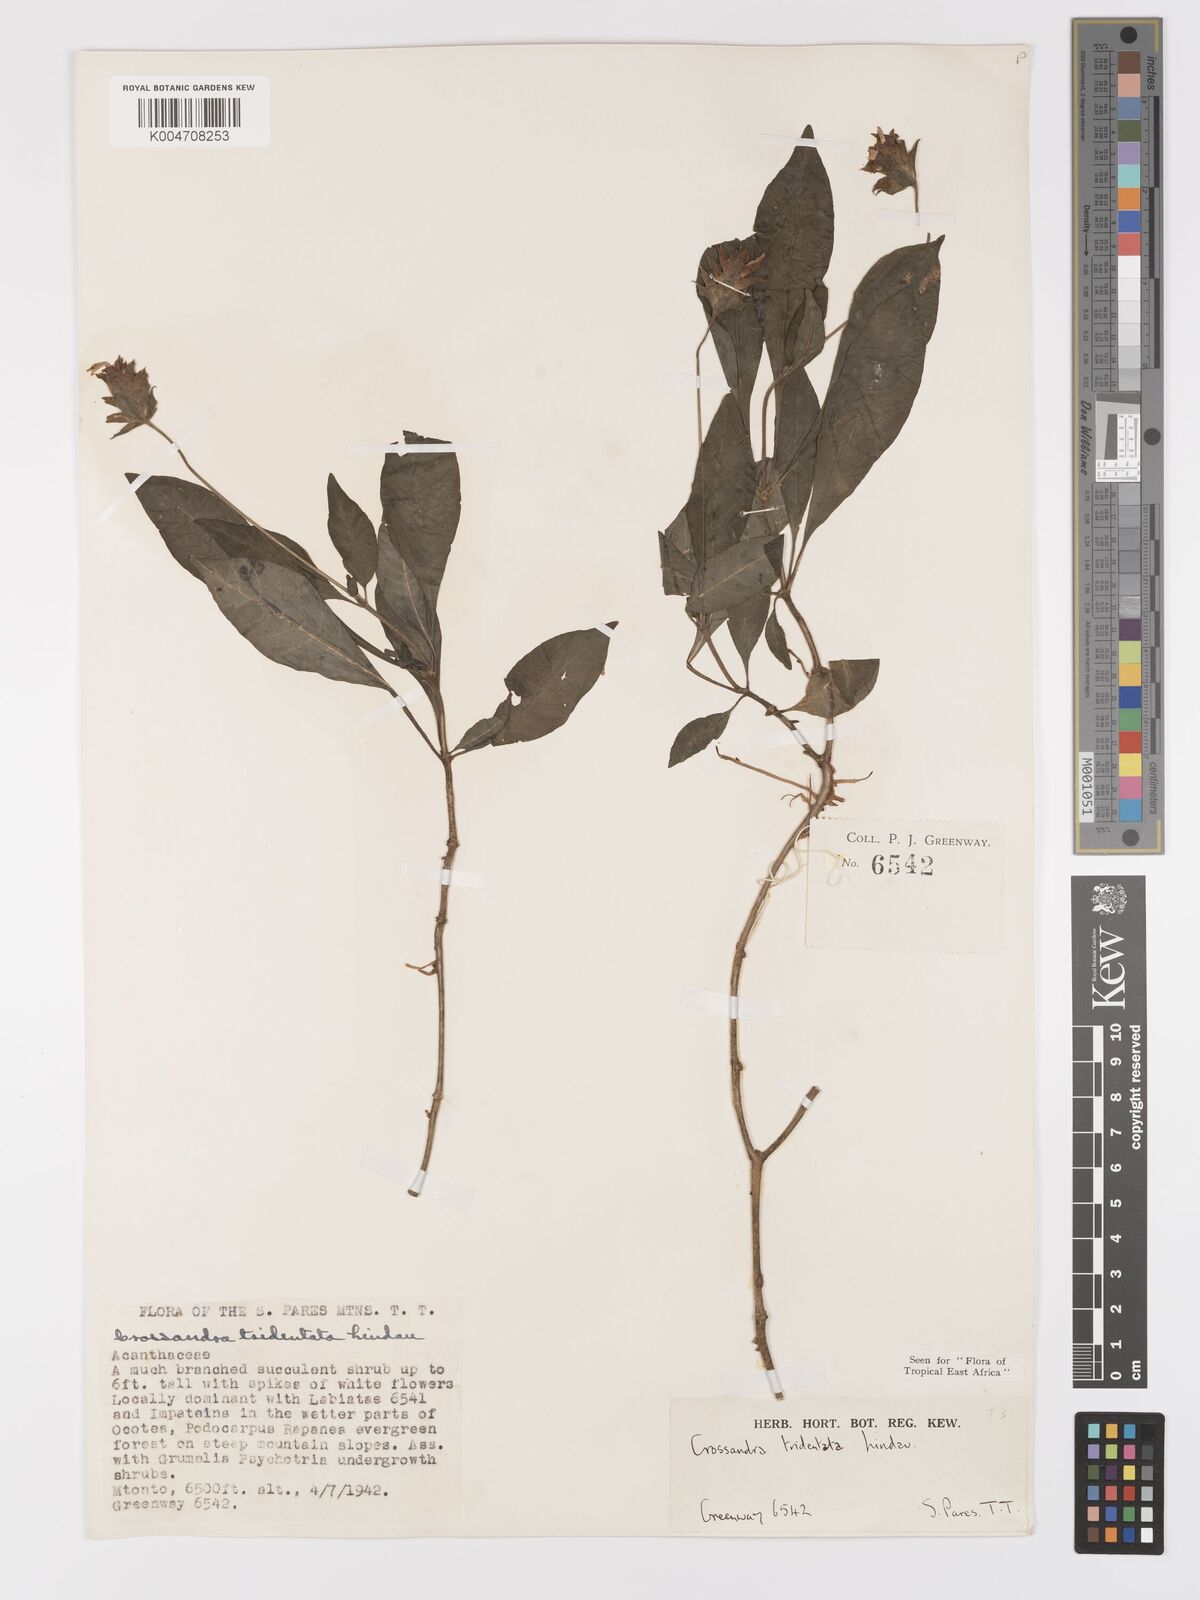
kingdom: Plantae
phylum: Tracheophyta
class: Magnoliopsida
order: Lamiales
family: Acanthaceae
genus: Crossandra
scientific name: Crossandra tridentata
